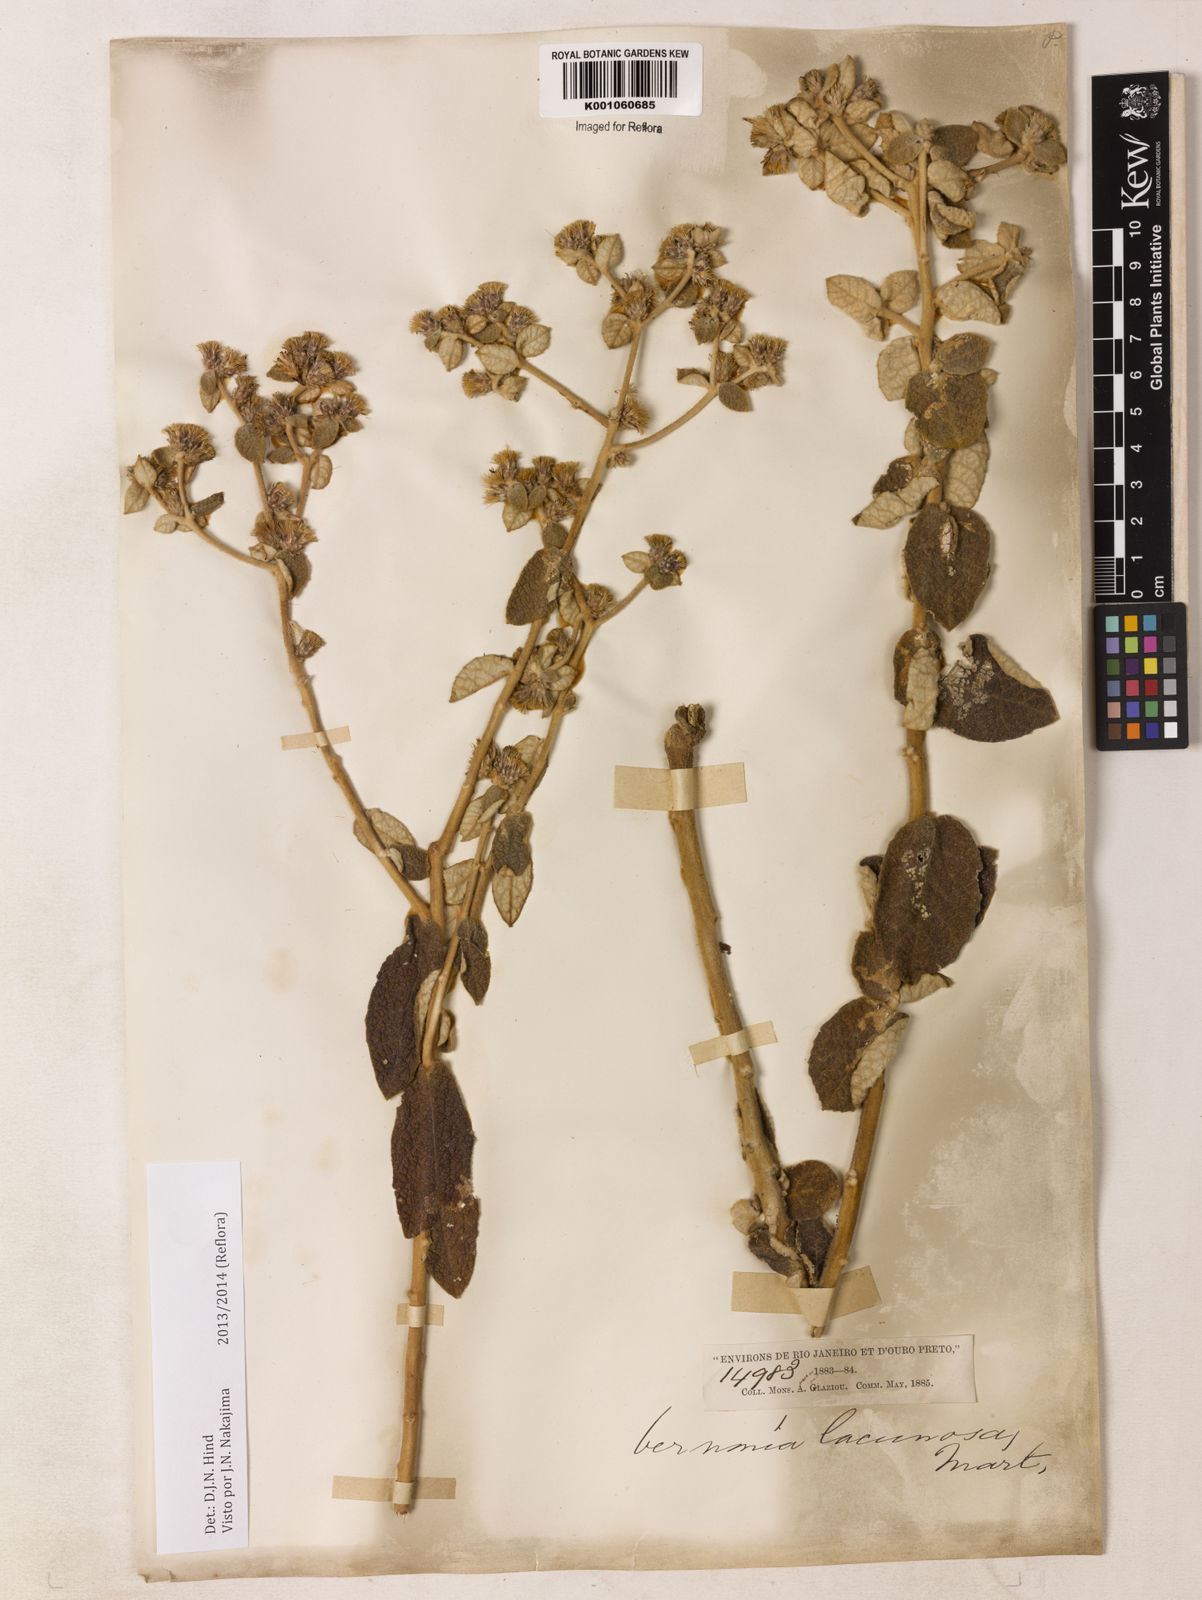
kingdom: Plantae
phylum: Tracheophyta
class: Magnoliopsida
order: Asterales
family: Asteraceae
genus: Lessingianthus
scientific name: Lessingianthus lacunosus
